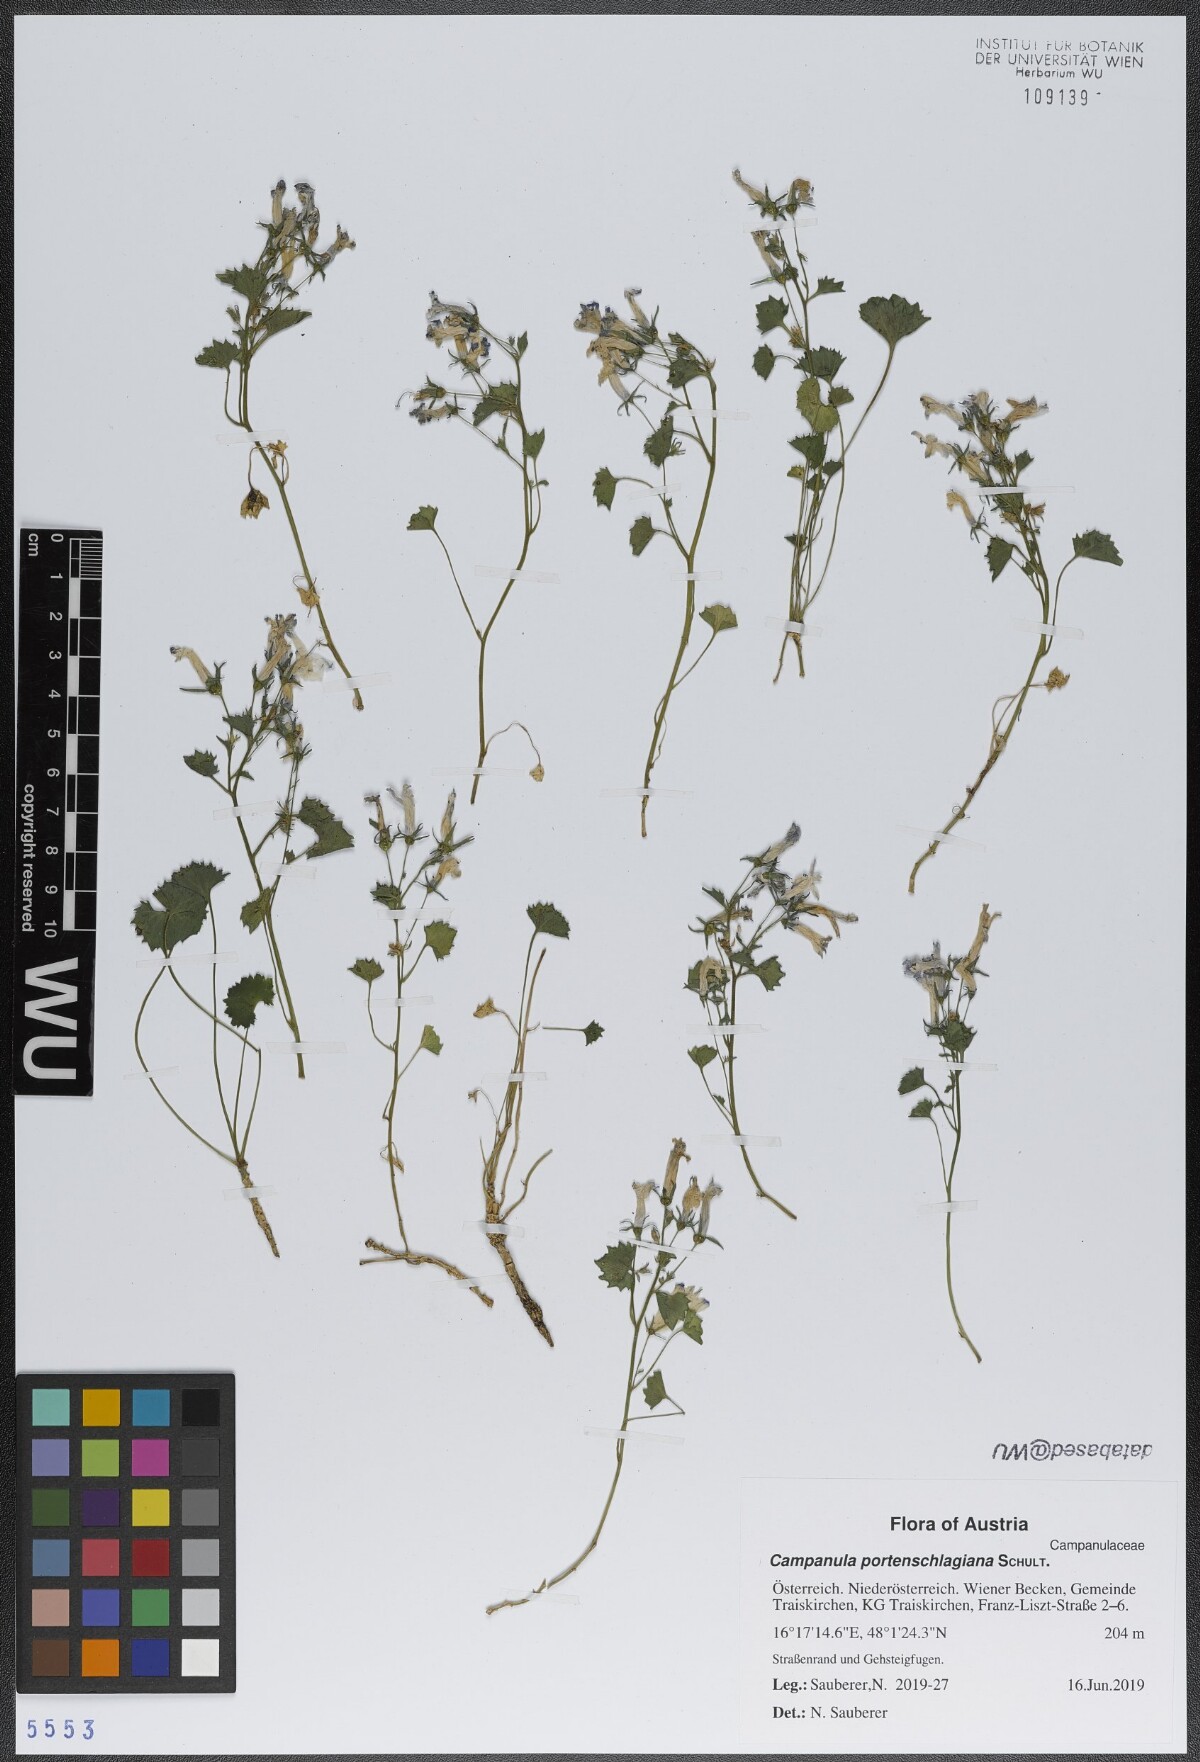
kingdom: Plantae
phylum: Tracheophyta
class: Magnoliopsida
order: Asterales
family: Campanulaceae
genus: Campanula
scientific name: Campanula portenschlagiana
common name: Adria bellflower
